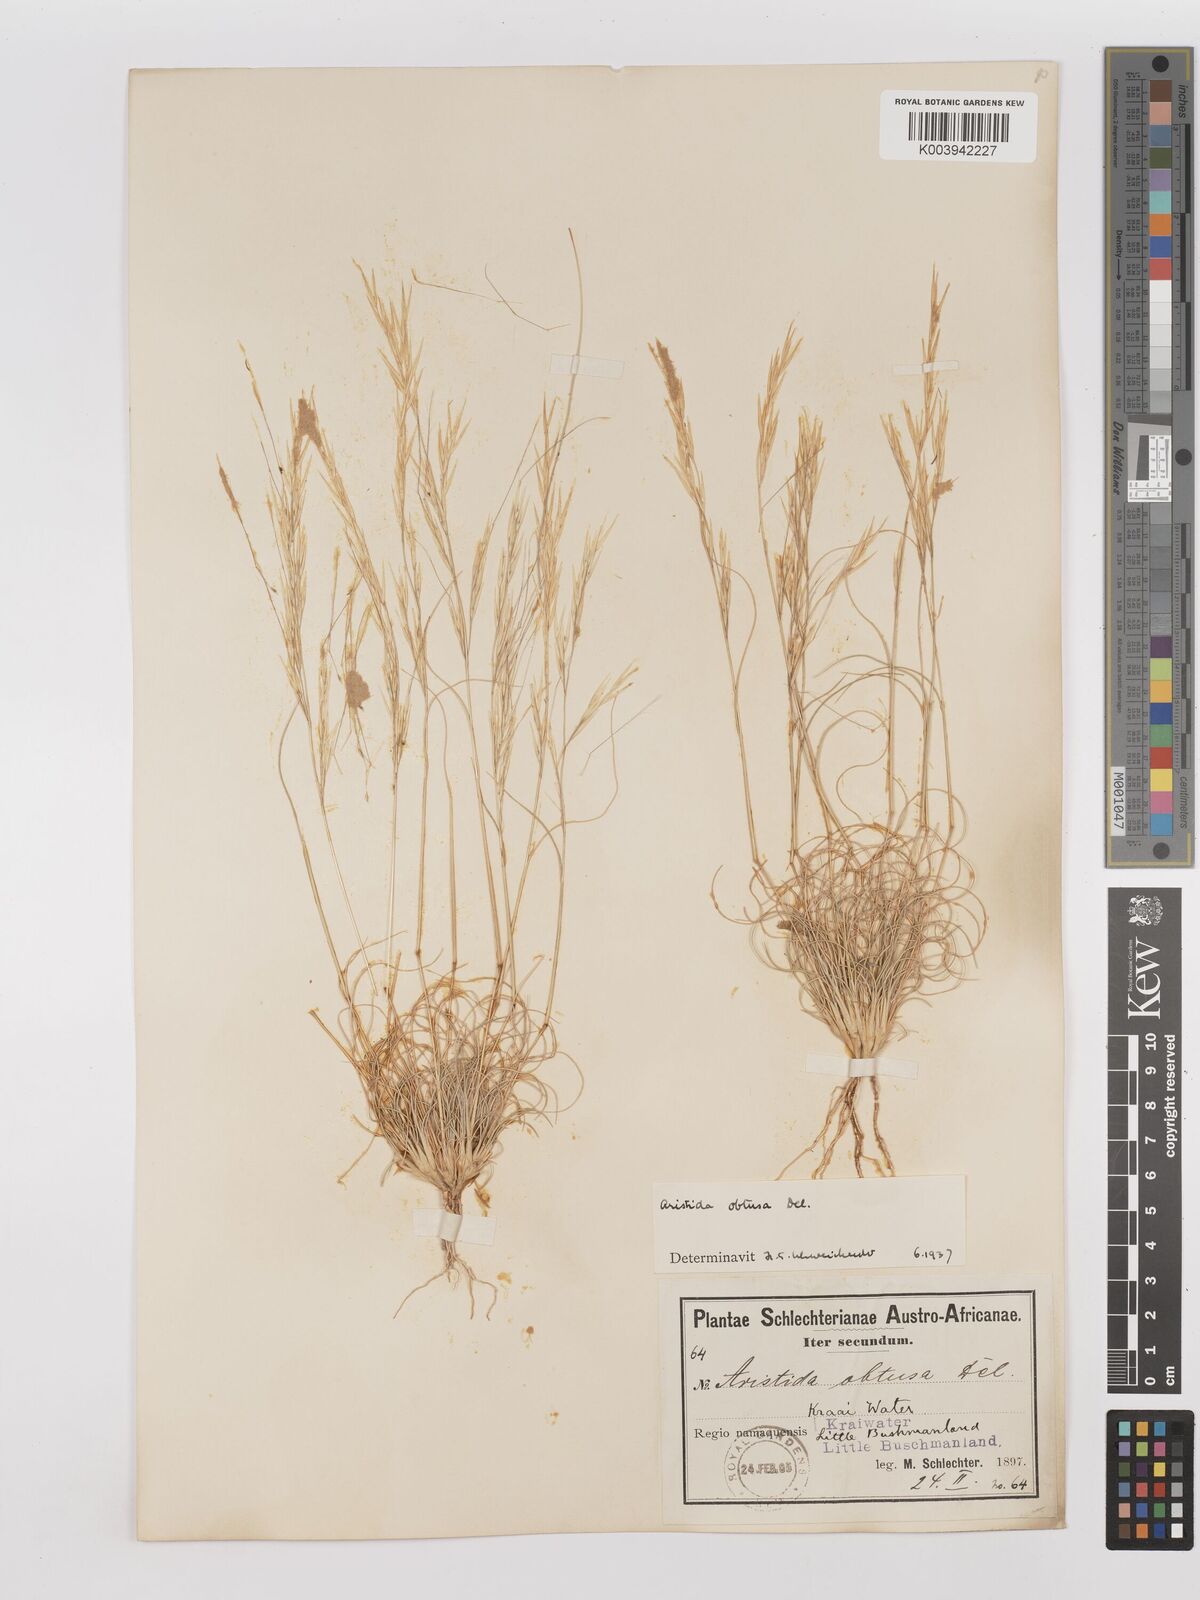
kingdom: Plantae
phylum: Tracheophyta
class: Liliopsida
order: Poales
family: Poaceae
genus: Stipagrostis
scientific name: Stipagrostis obtusa
